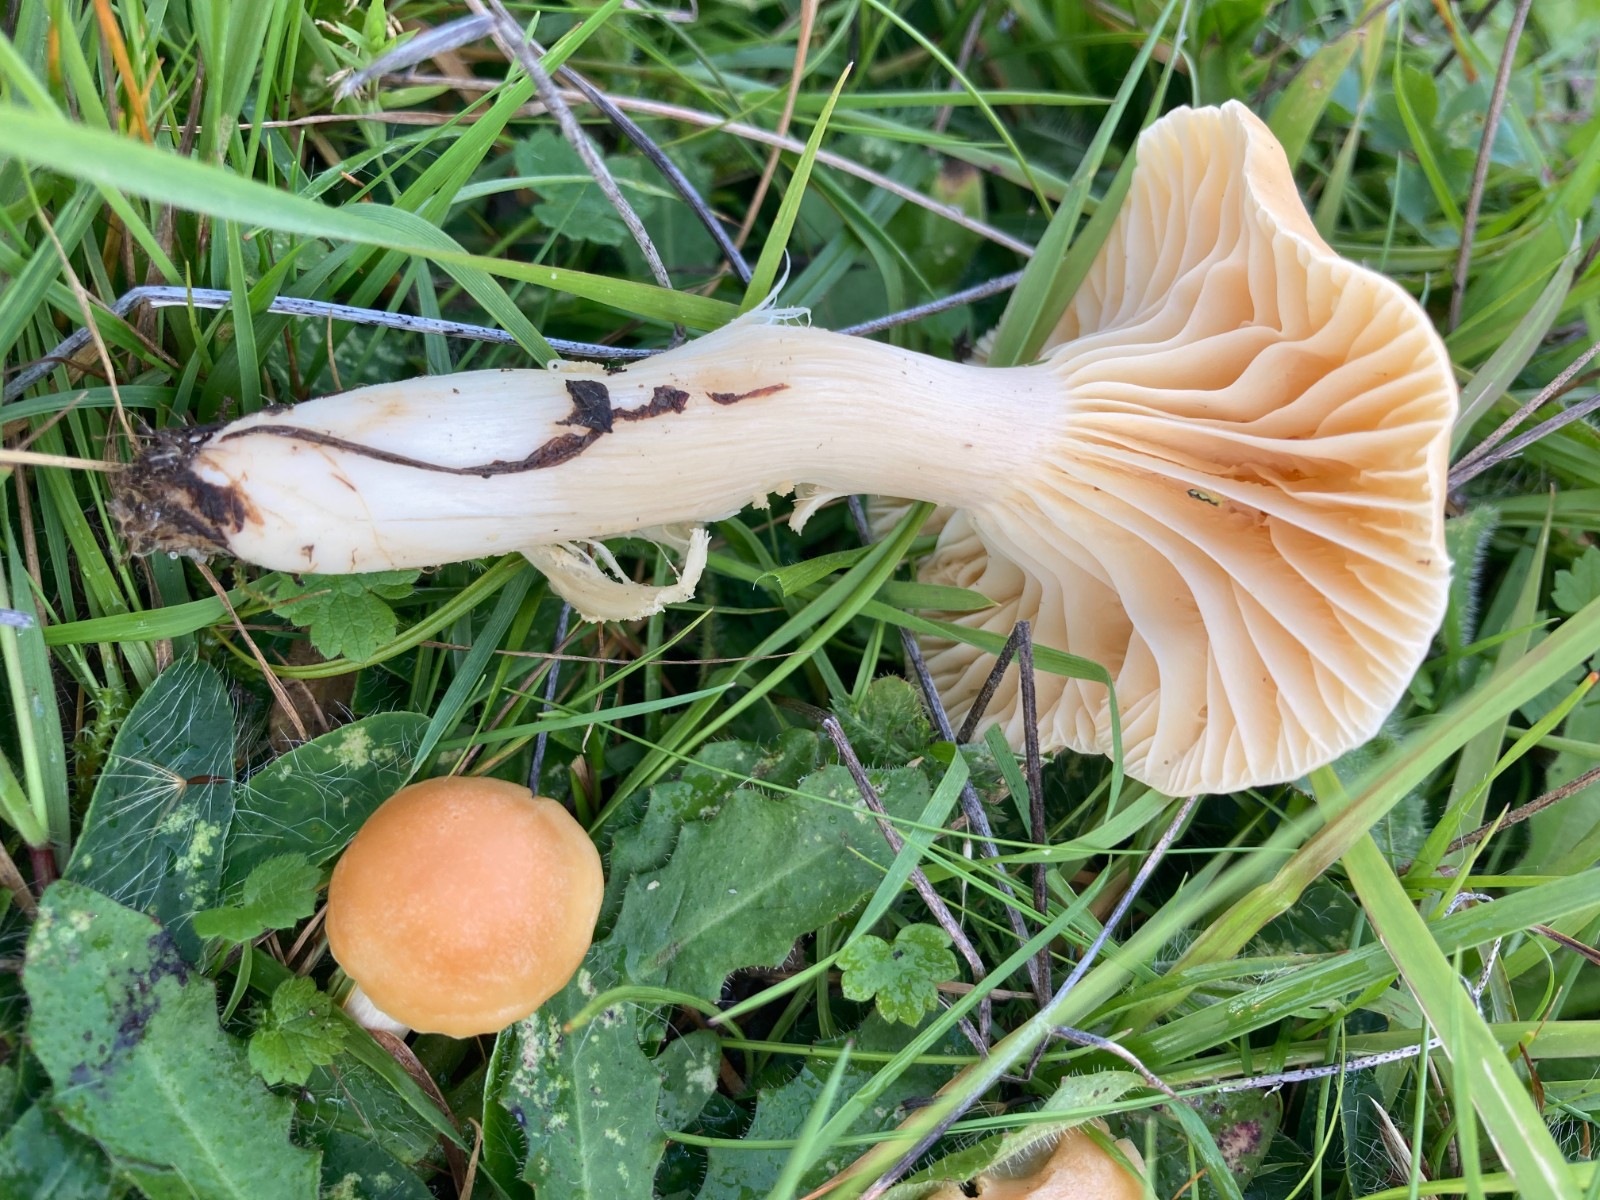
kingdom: Fungi
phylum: Basidiomycota
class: Agaricomycetes
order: Agaricales
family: Hygrophoraceae
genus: Cuphophyllus
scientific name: Cuphophyllus pratensis
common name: eng-vokshat
